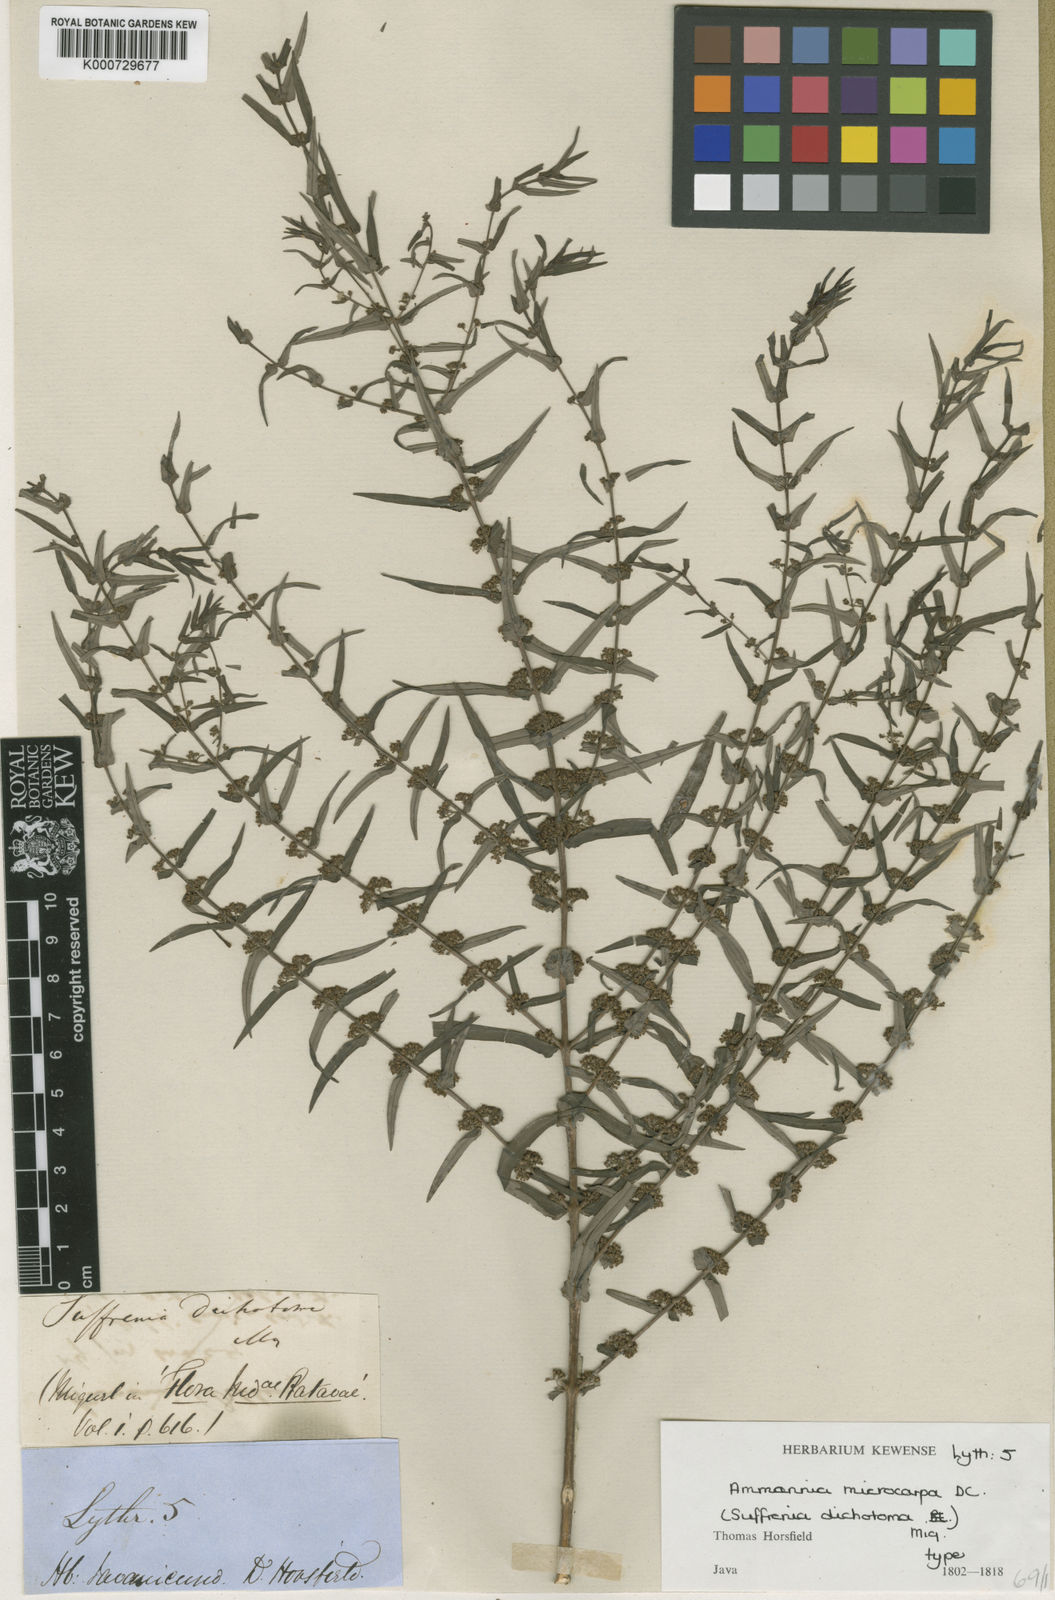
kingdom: Plantae
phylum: Tracheophyta
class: Magnoliopsida
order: Myrtales
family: Lythraceae
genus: Ammannia
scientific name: Ammannia auriculata
